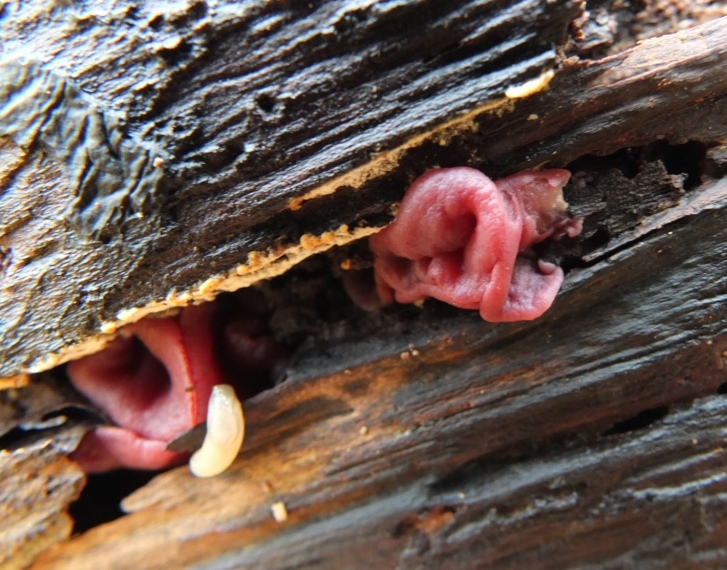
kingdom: Fungi
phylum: Ascomycota
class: Leotiomycetes
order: Helotiales
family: Gelatinodiscaceae
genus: Ascocoryne
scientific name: Ascocoryne cylichnium
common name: stor sejskive
